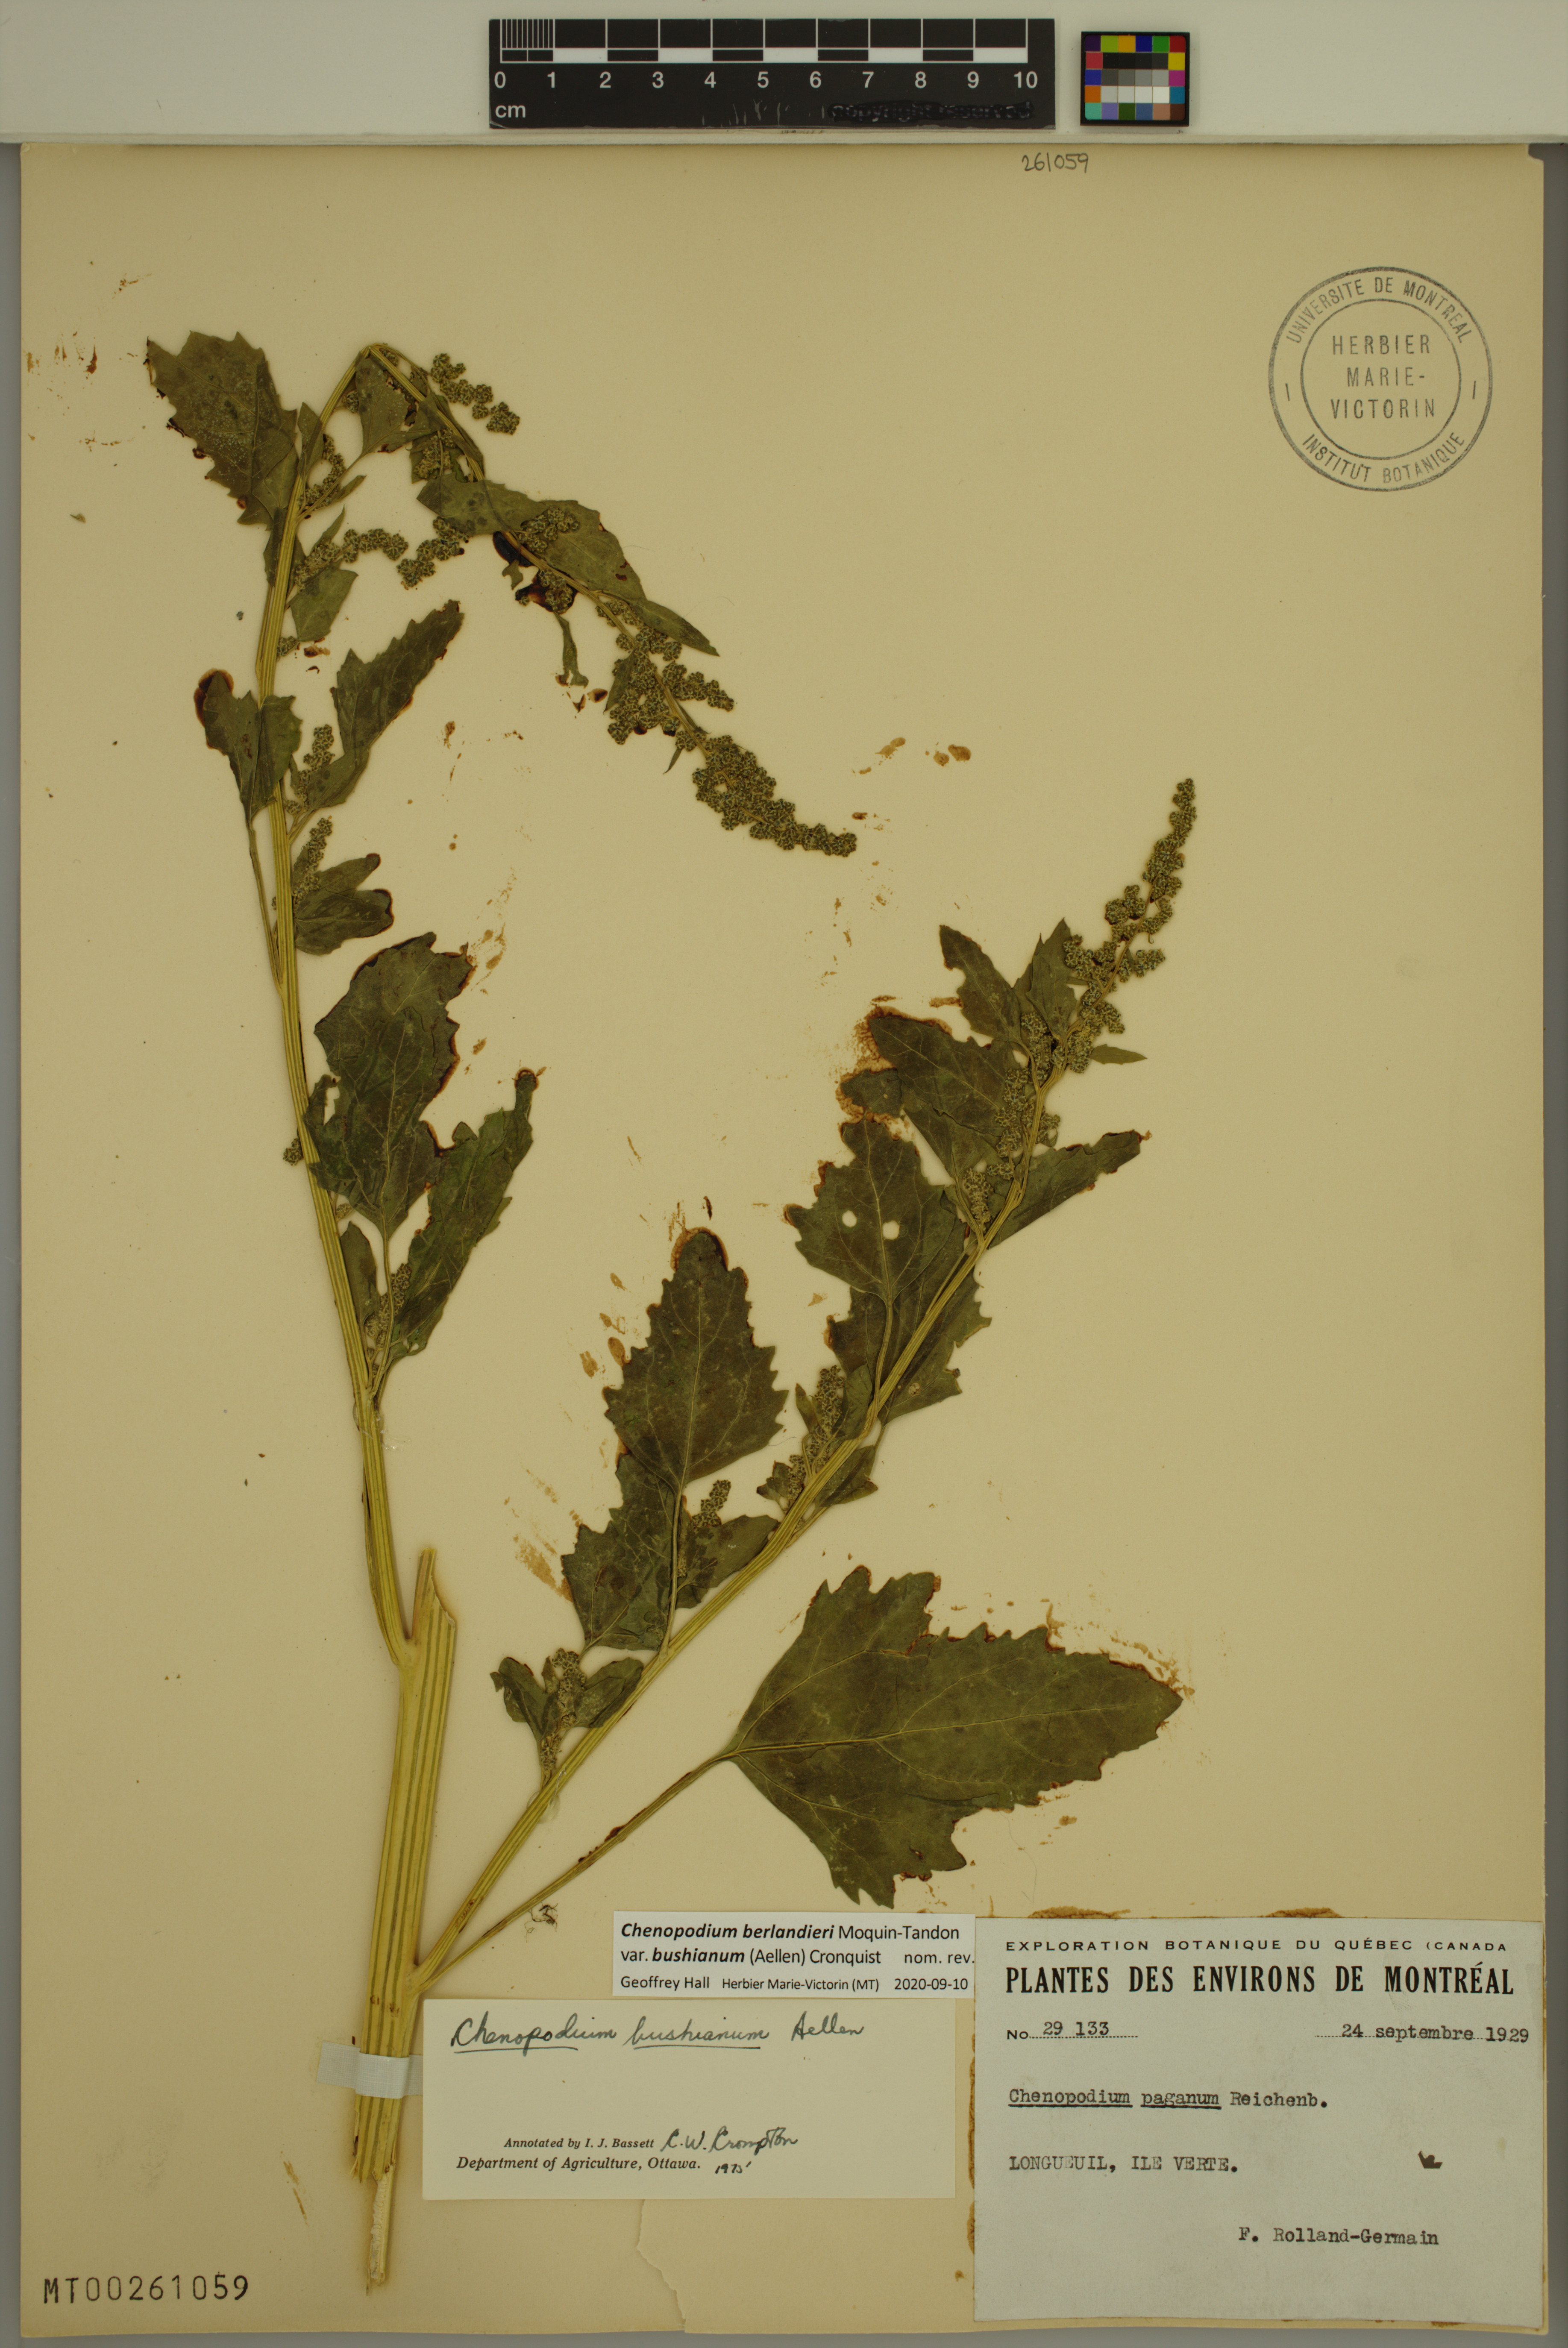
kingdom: Plantae
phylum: Tracheophyta
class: Magnoliopsida
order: Caryophyllales
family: Amaranthaceae
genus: Chenopodium
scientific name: Chenopodium berlandieri
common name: Pit-seed goosefoot
